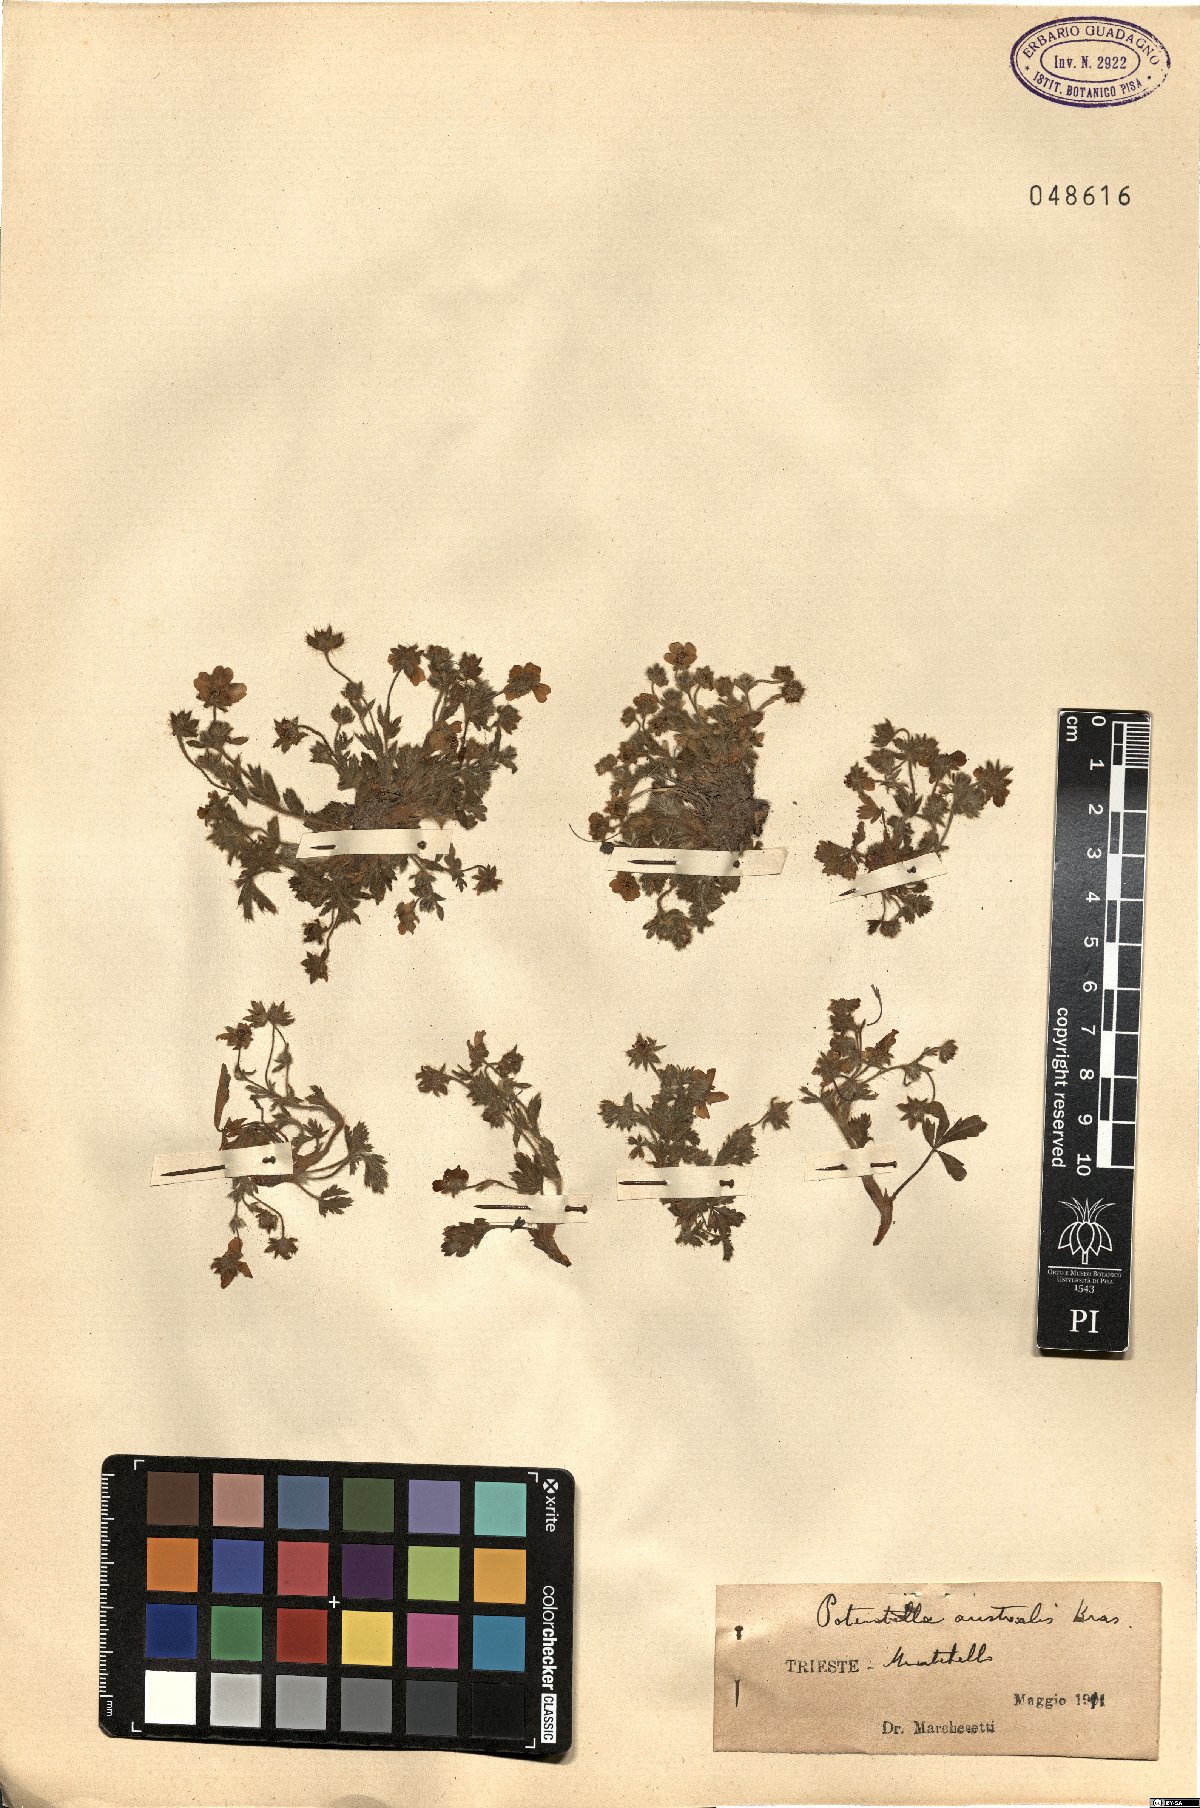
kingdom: Plantae
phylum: Tracheophyta
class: Magnoliopsida
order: Rosales
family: Rosaceae
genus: Potentilla
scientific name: Potentilla heptaphylla
